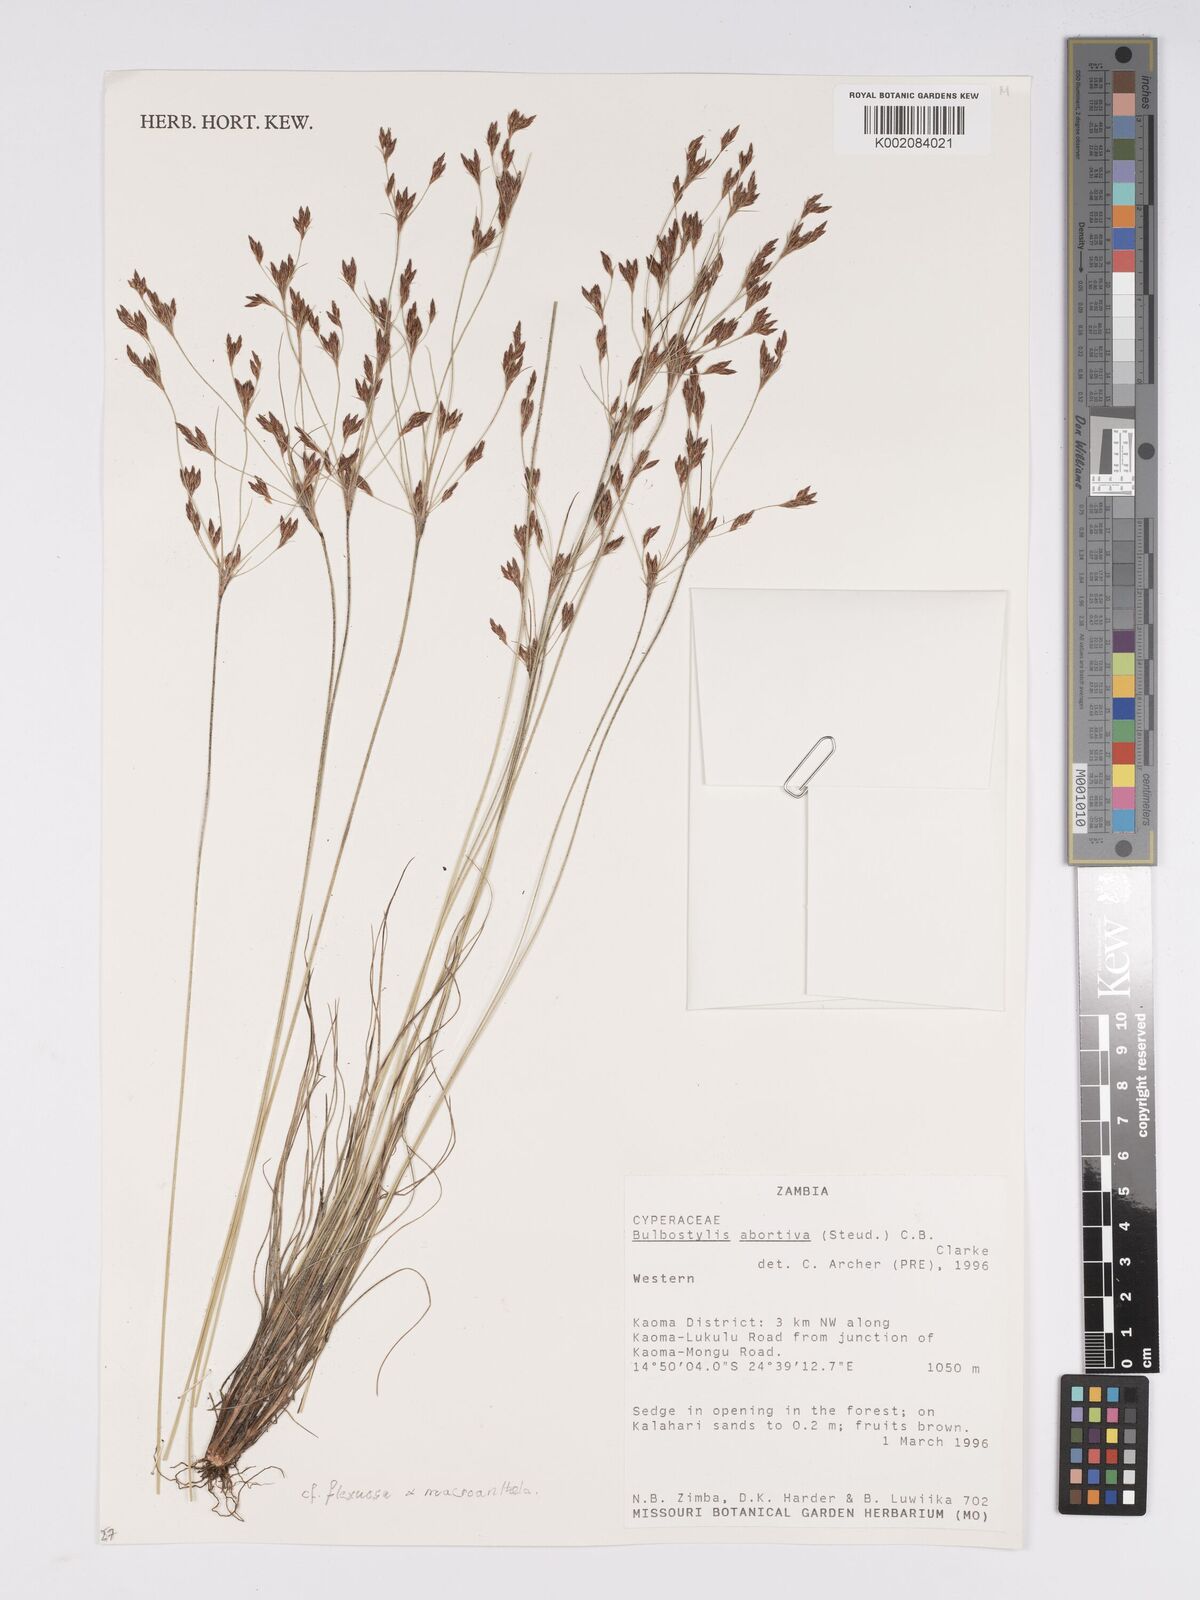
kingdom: Plantae
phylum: Tracheophyta
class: Liliopsida
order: Poales
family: Cyperaceae
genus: Bulbostylis
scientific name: Bulbostylis flexuosa
